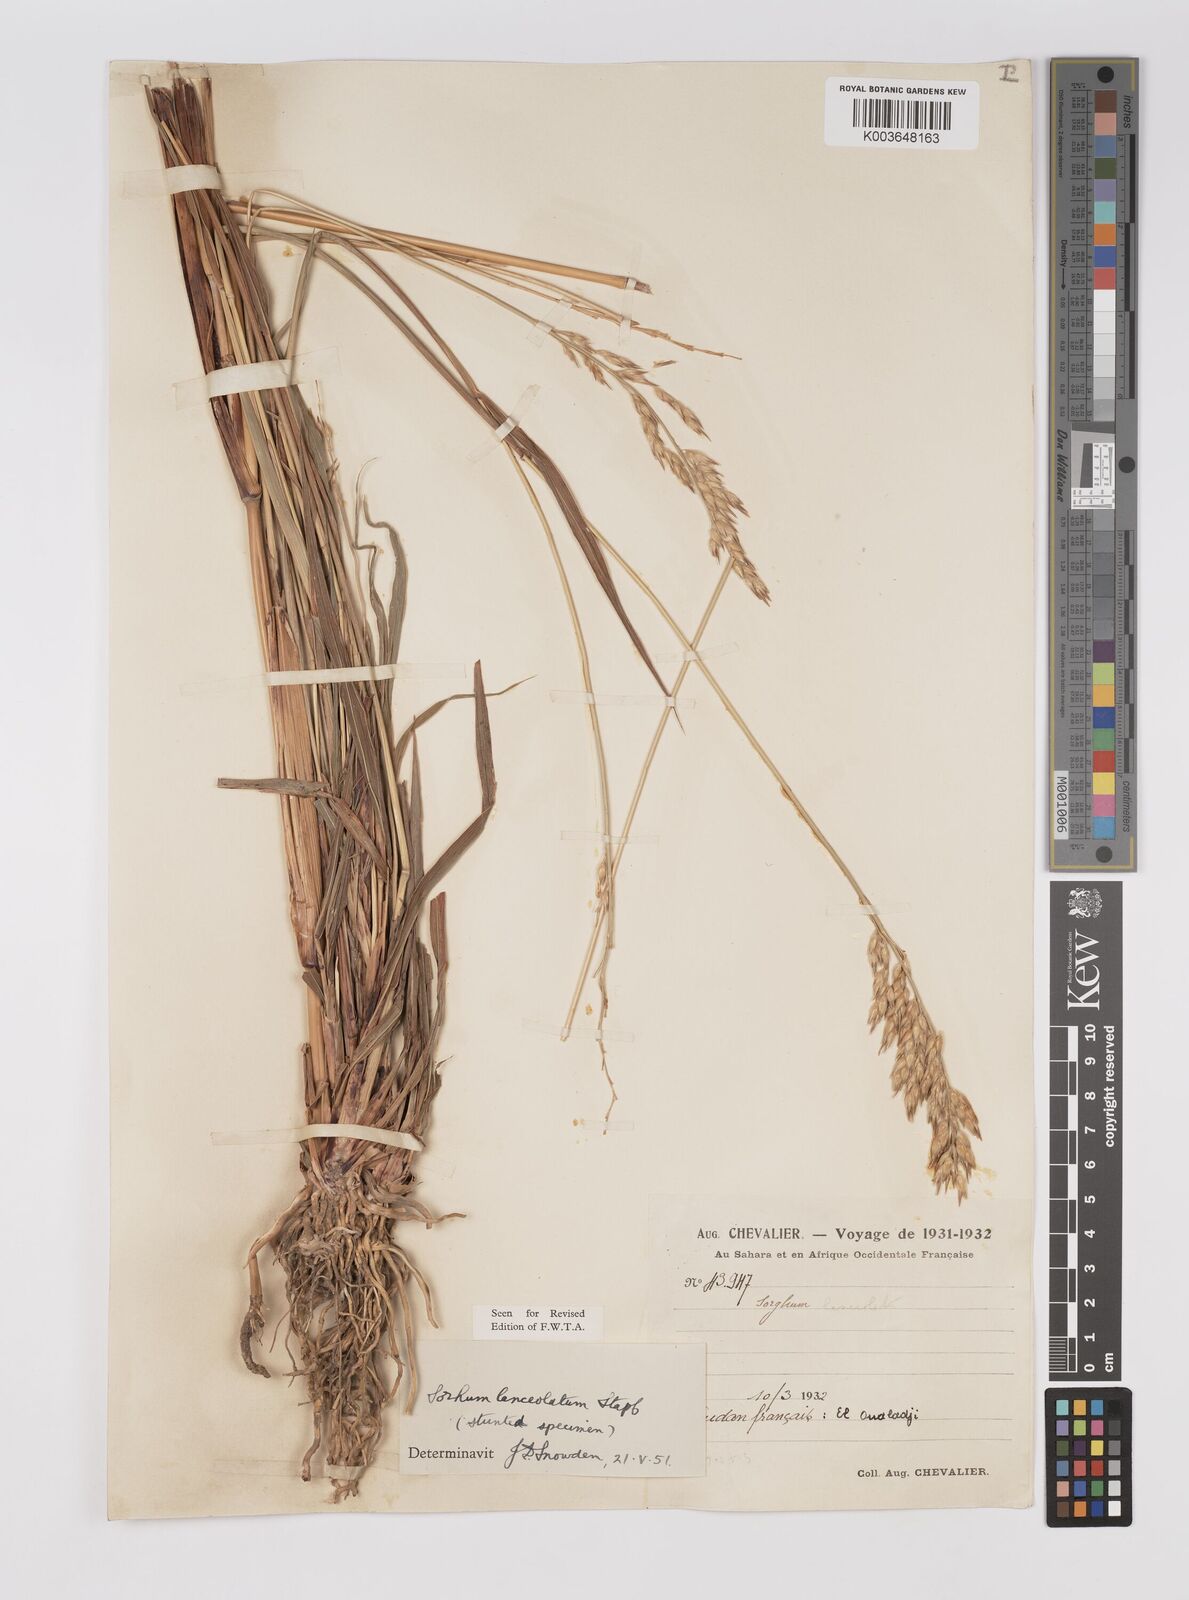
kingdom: Plantae
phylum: Tracheophyta
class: Liliopsida
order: Poales
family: Poaceae
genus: Sorghum
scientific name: Sorghum arundinaceum
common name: Sorghum
